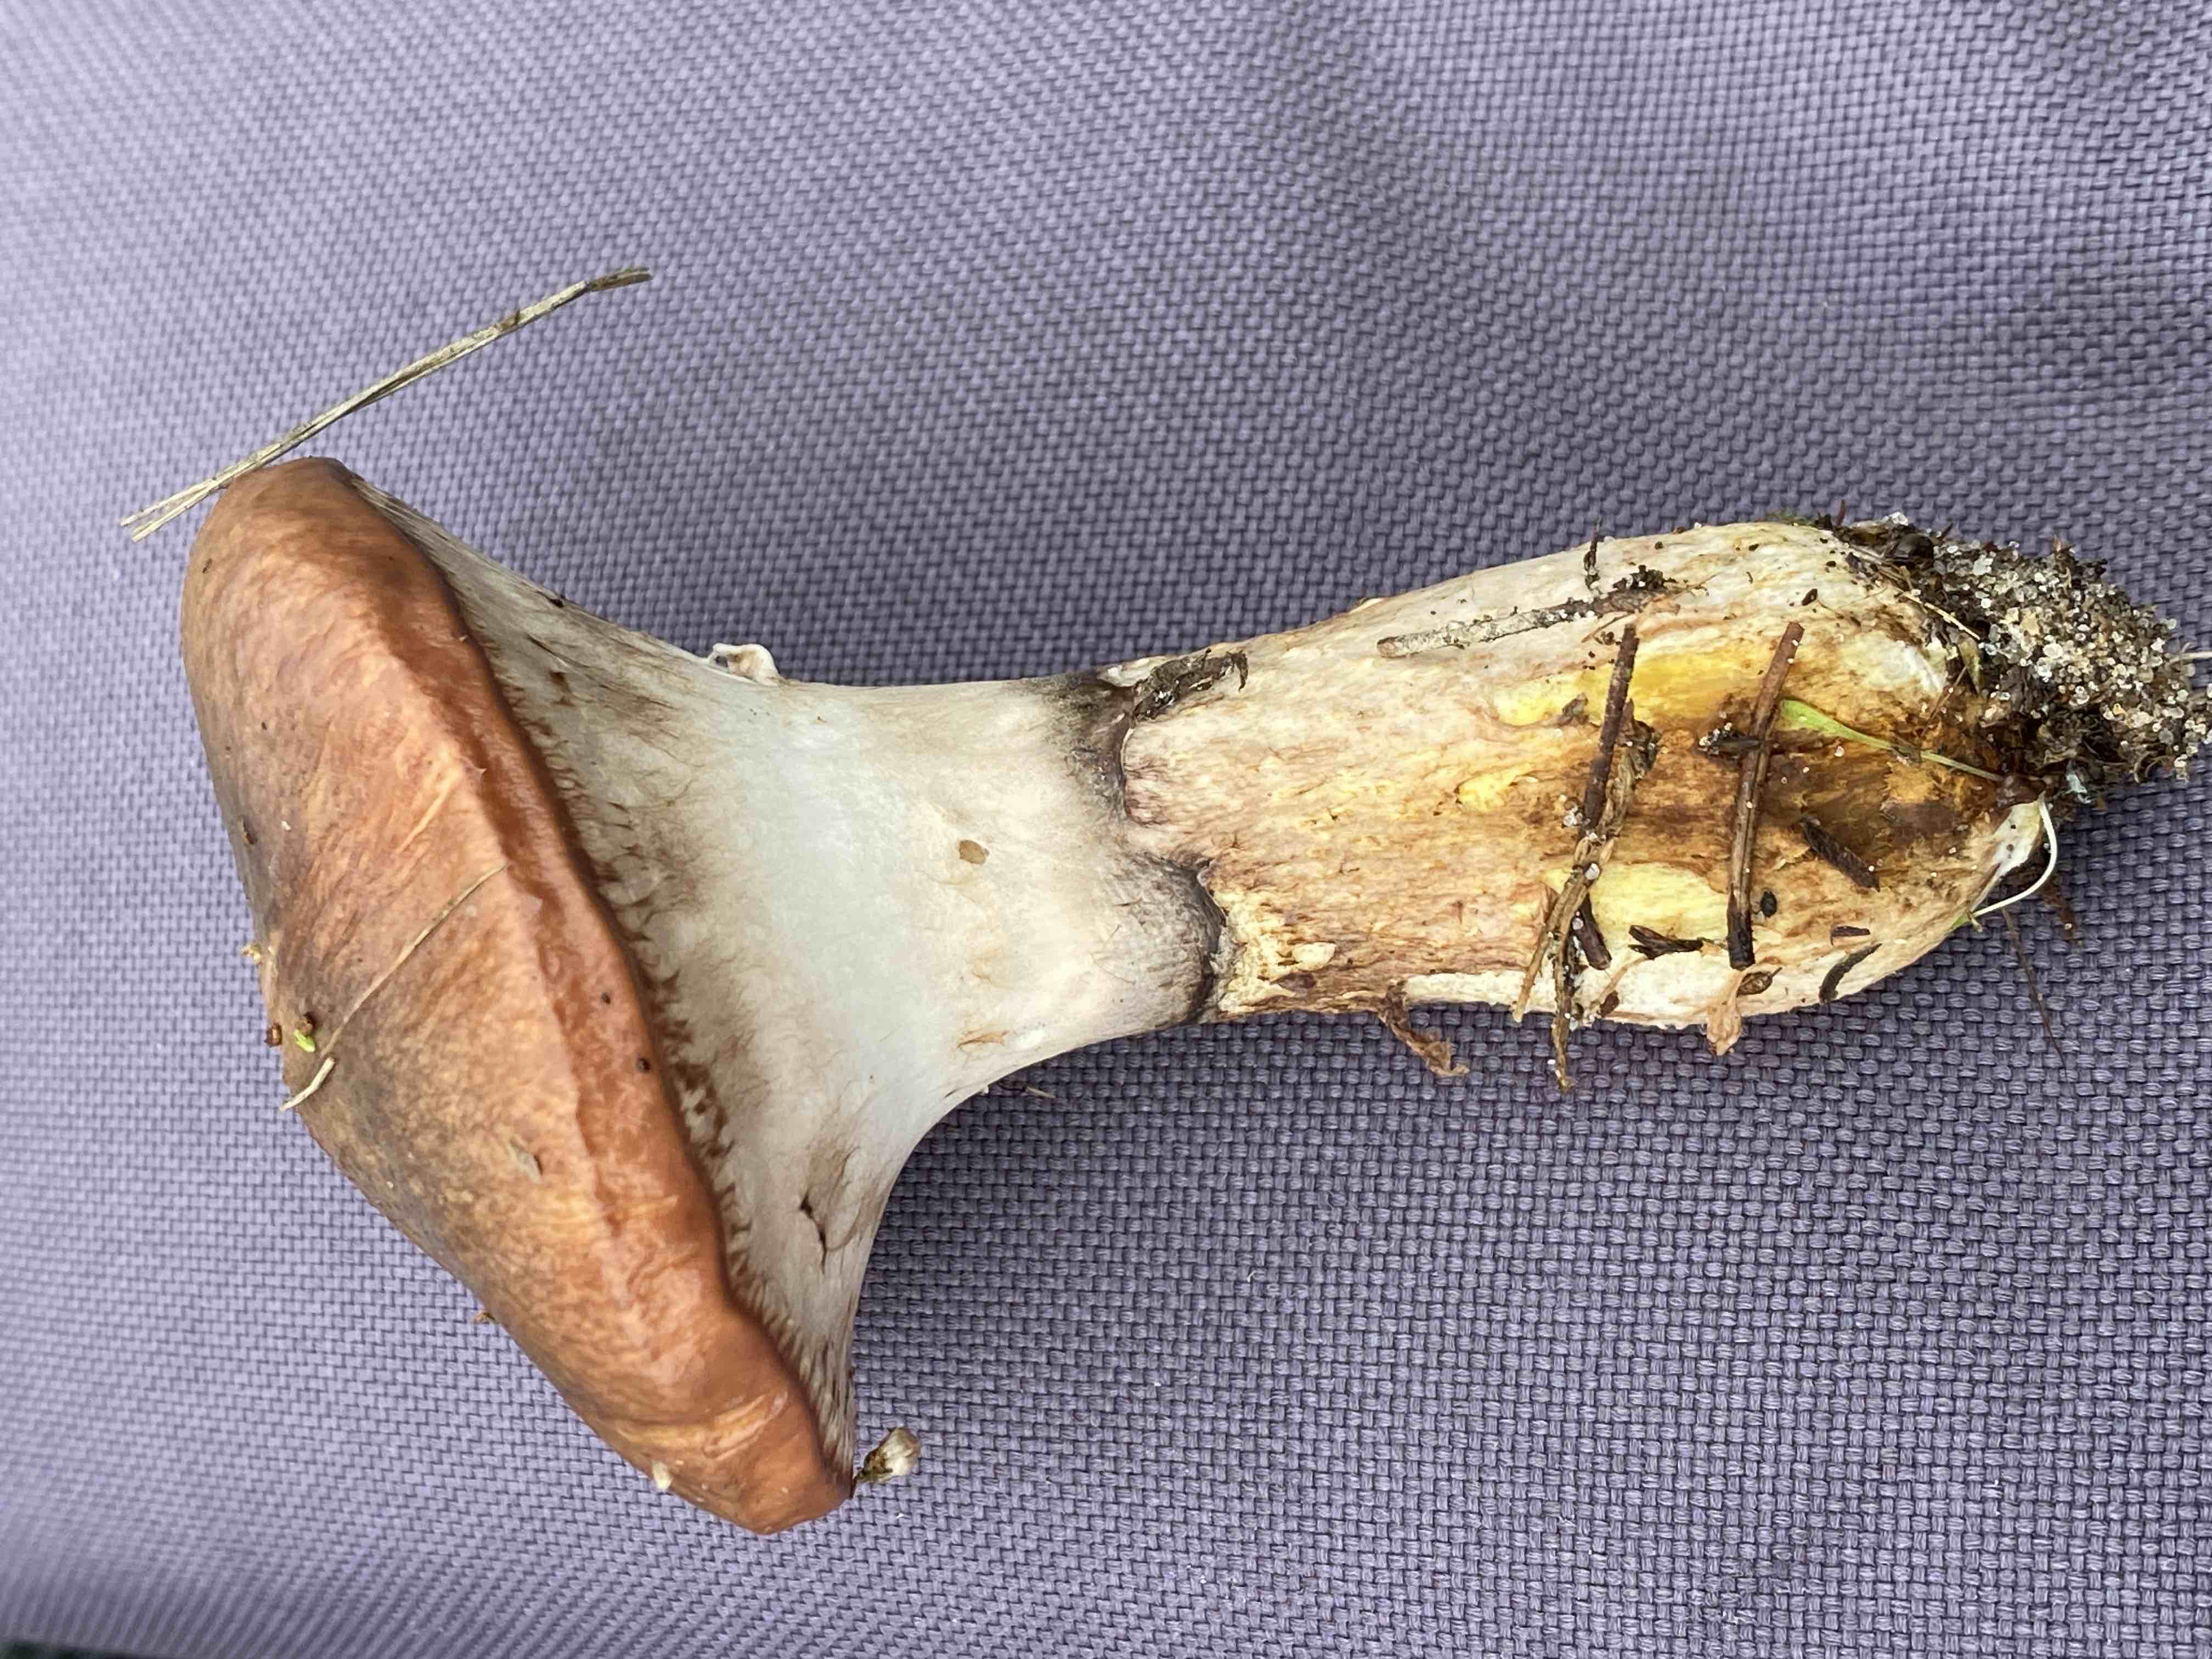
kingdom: Fungi
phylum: Basidiomycota
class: Agaricomycetes
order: Boletales
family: Suillaceae
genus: Suillus
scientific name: Suillus luteus
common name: brungul slimrørhat
